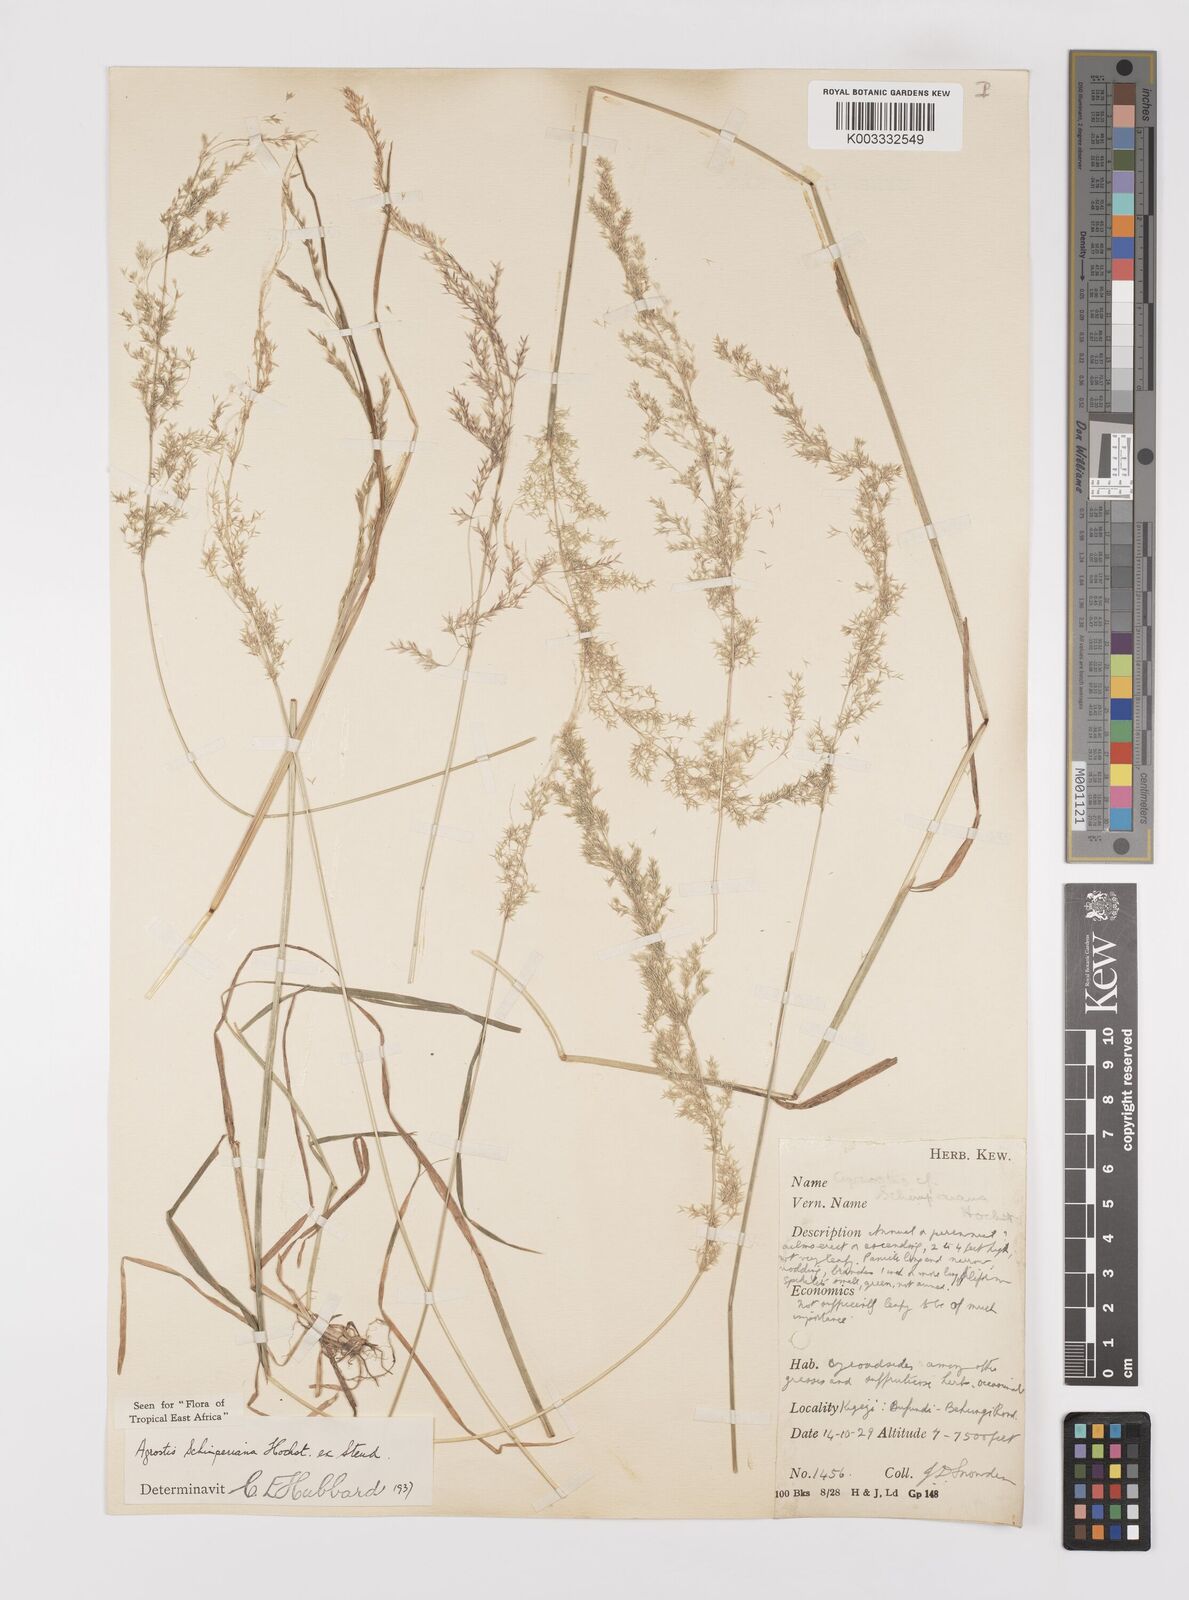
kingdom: Plantae
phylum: Tracheophyta
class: Liliopsida
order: Poales
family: Poaceae
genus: Polypogon
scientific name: Polypogon schimperianus
